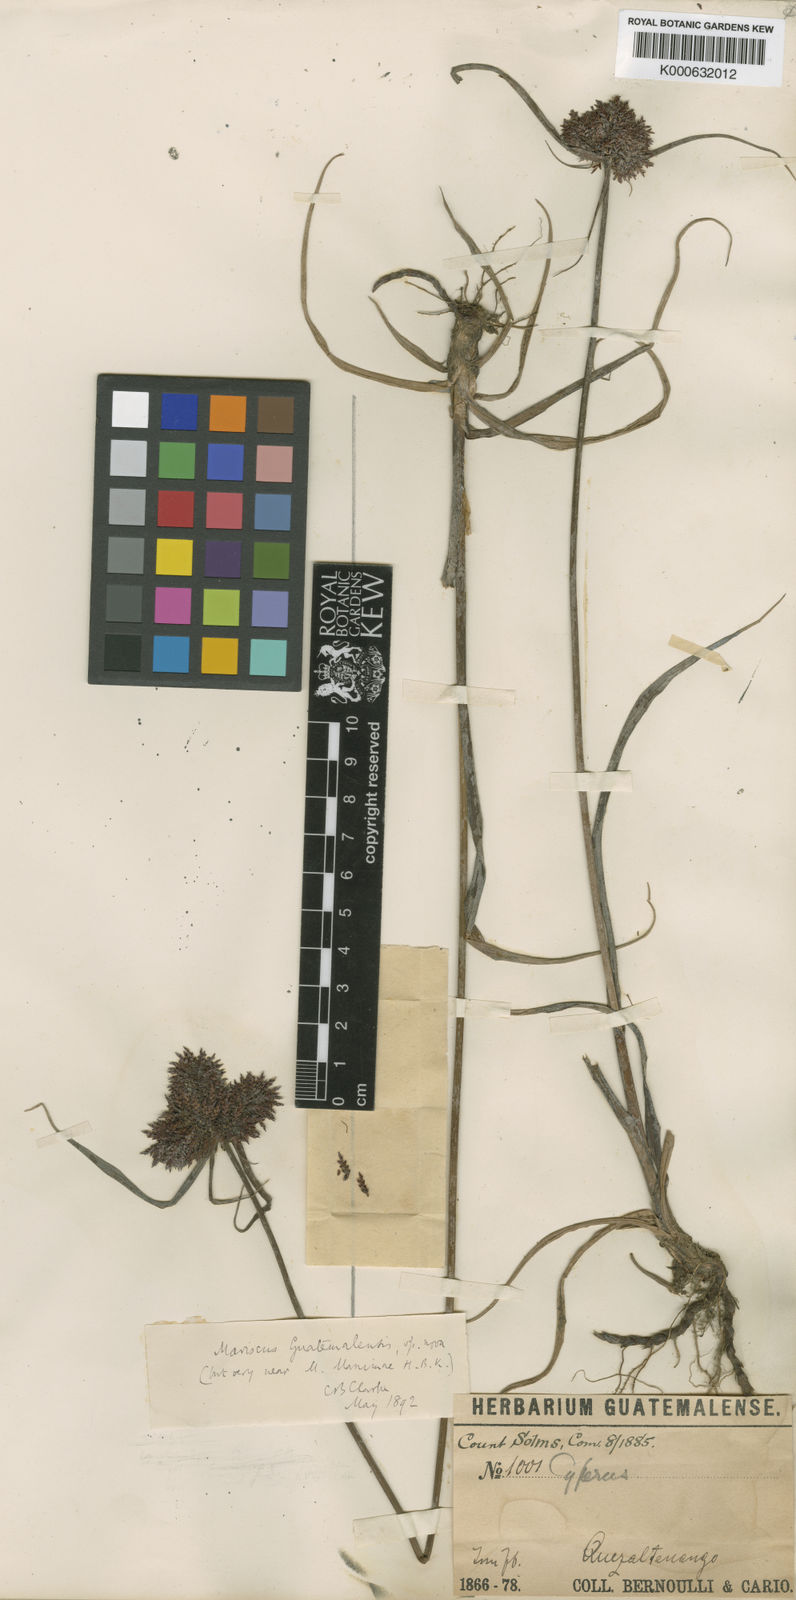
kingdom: Plantae
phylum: Tracheophyta
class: Liliopsida
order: Poales
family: Cyperaceae
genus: Cyperus
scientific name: Cyperus
